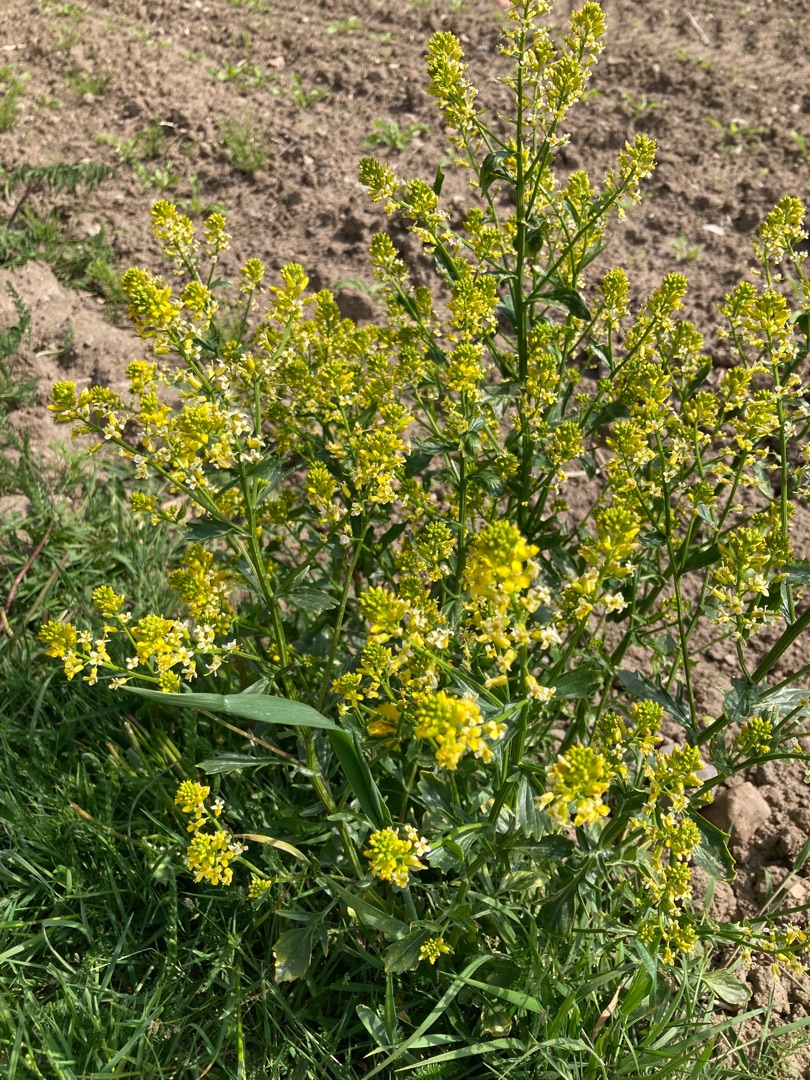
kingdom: Plantae
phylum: Tracheophyta
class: Magnoliopsida
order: Brassicales
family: Brassicaceae
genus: Barbarea
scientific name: Barbarea vulgaris
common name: Udspærret vinterkarse
